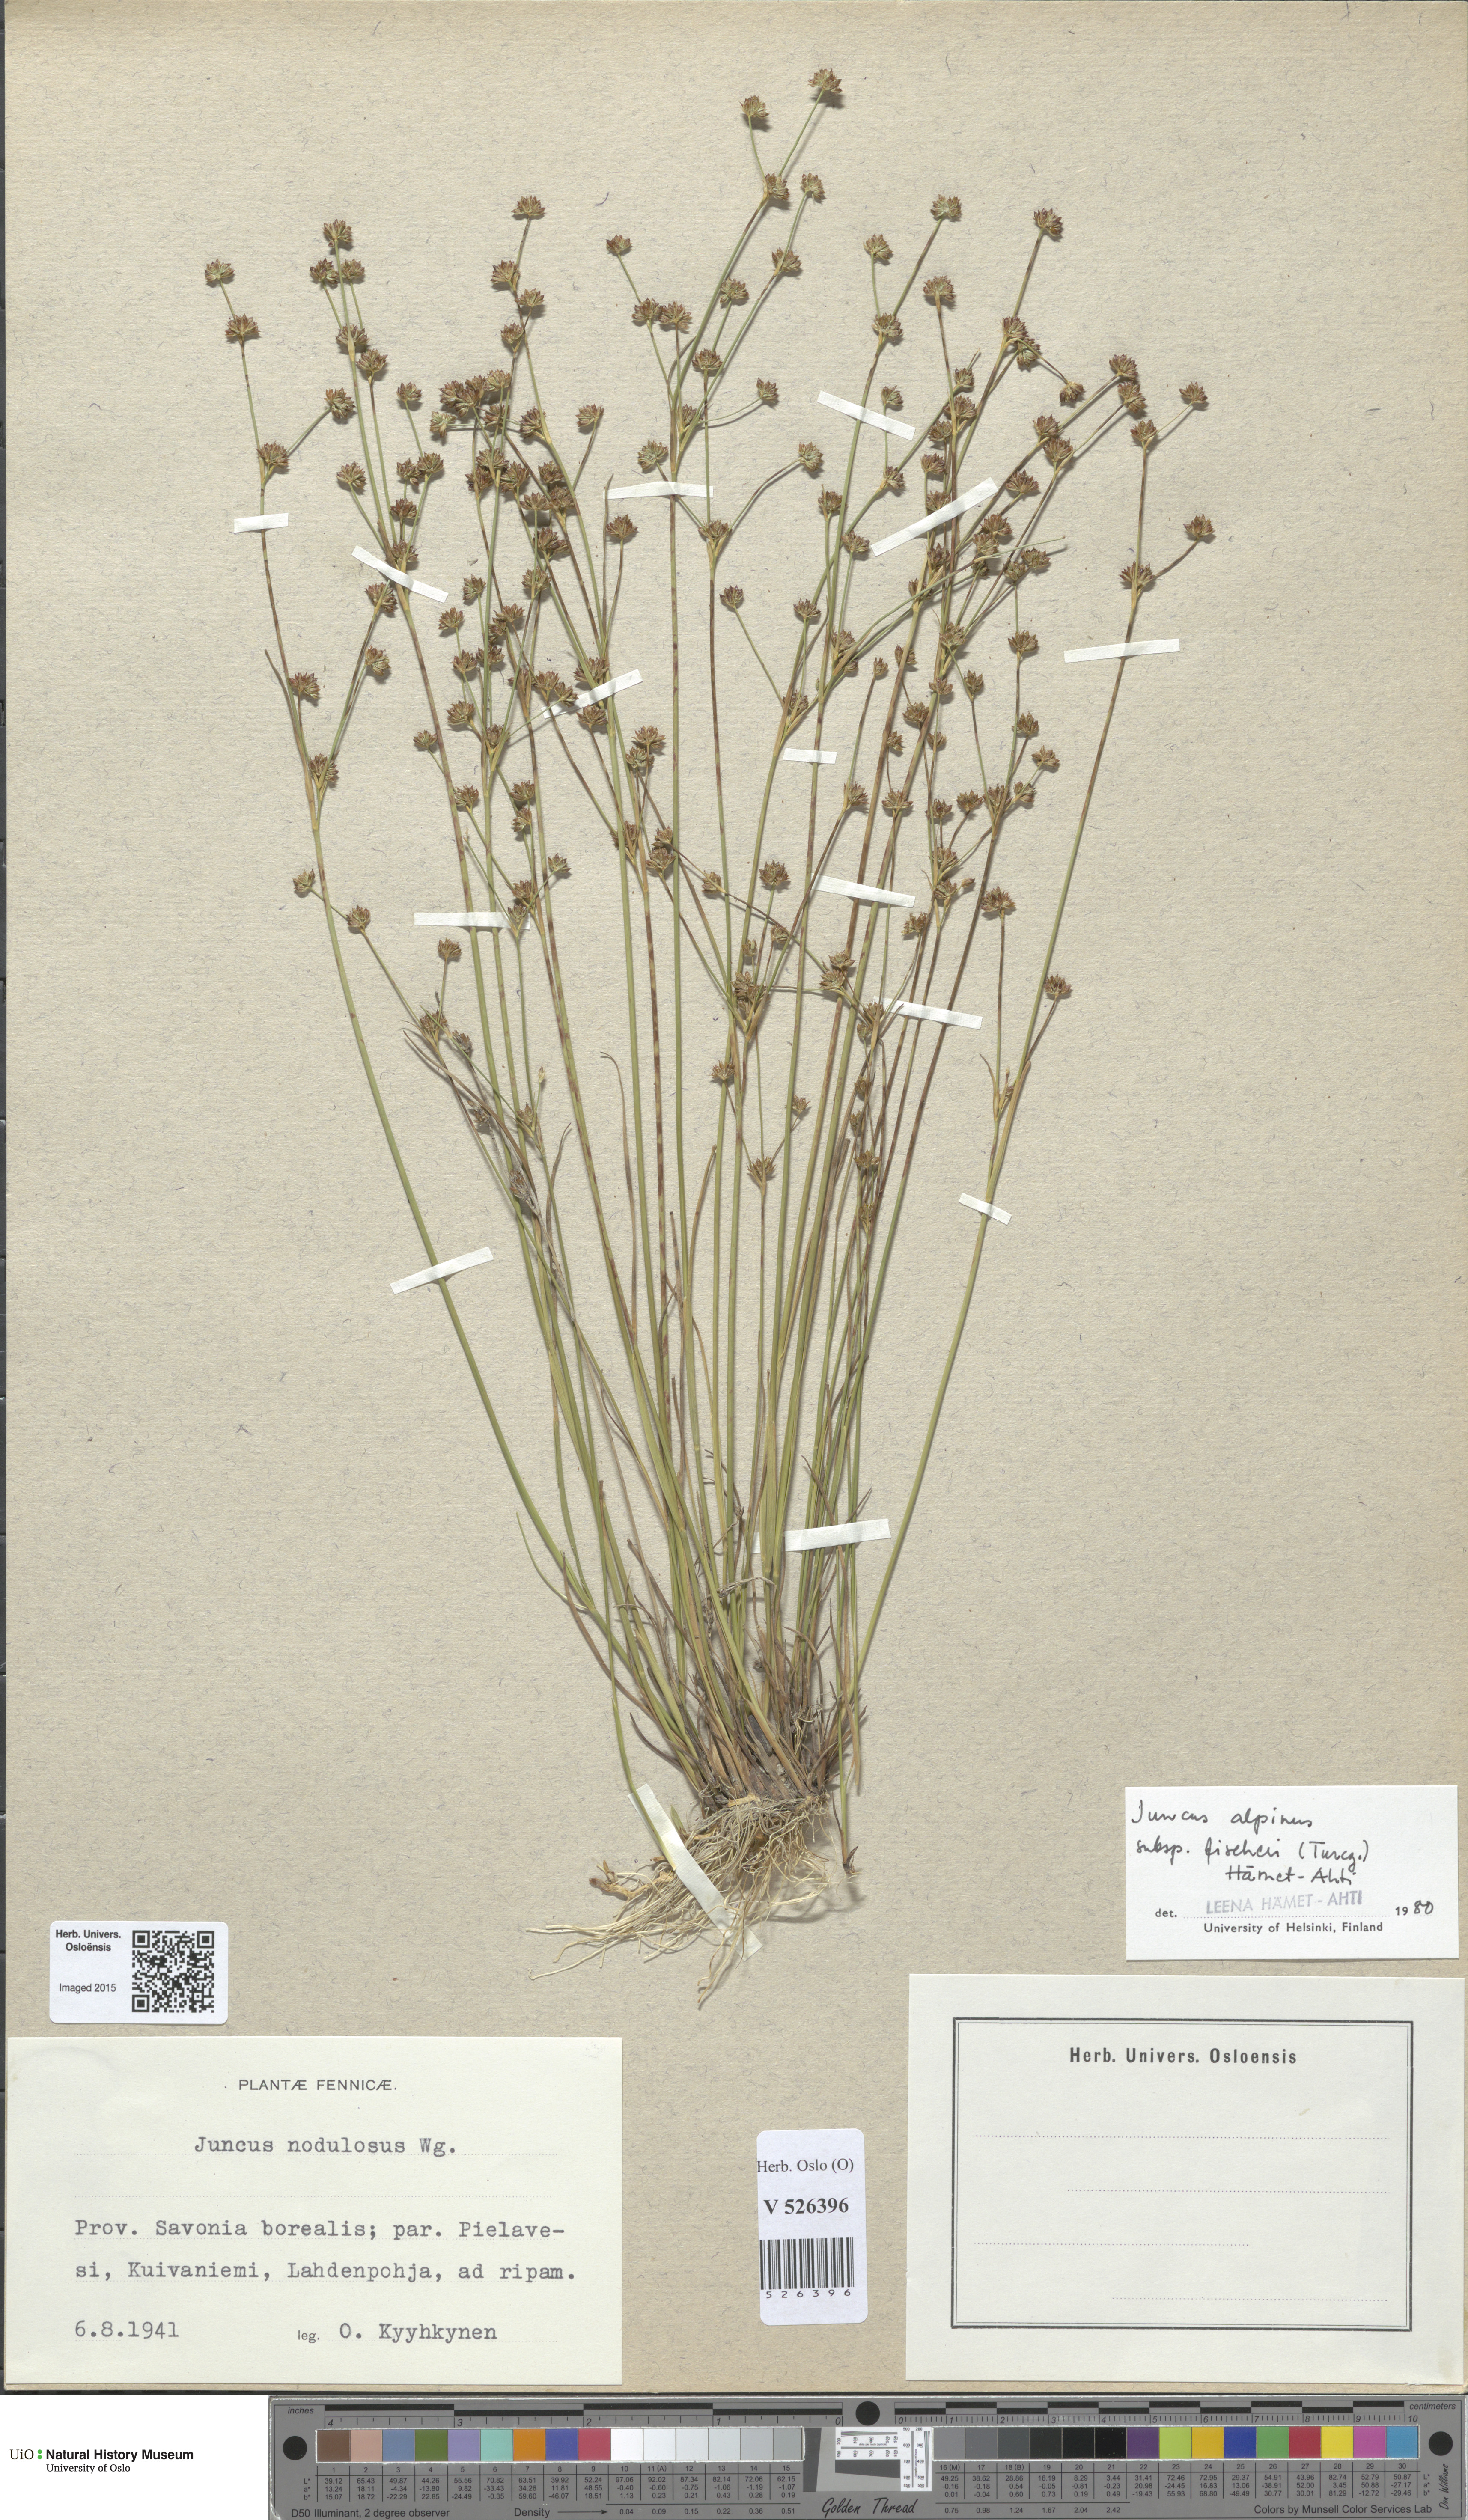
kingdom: Plantae
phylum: Tracheophyta
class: Liliopsida
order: Poales
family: Juncaceae
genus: Juncus
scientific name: Juncus alpinoarticulatus
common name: Alpine rush
